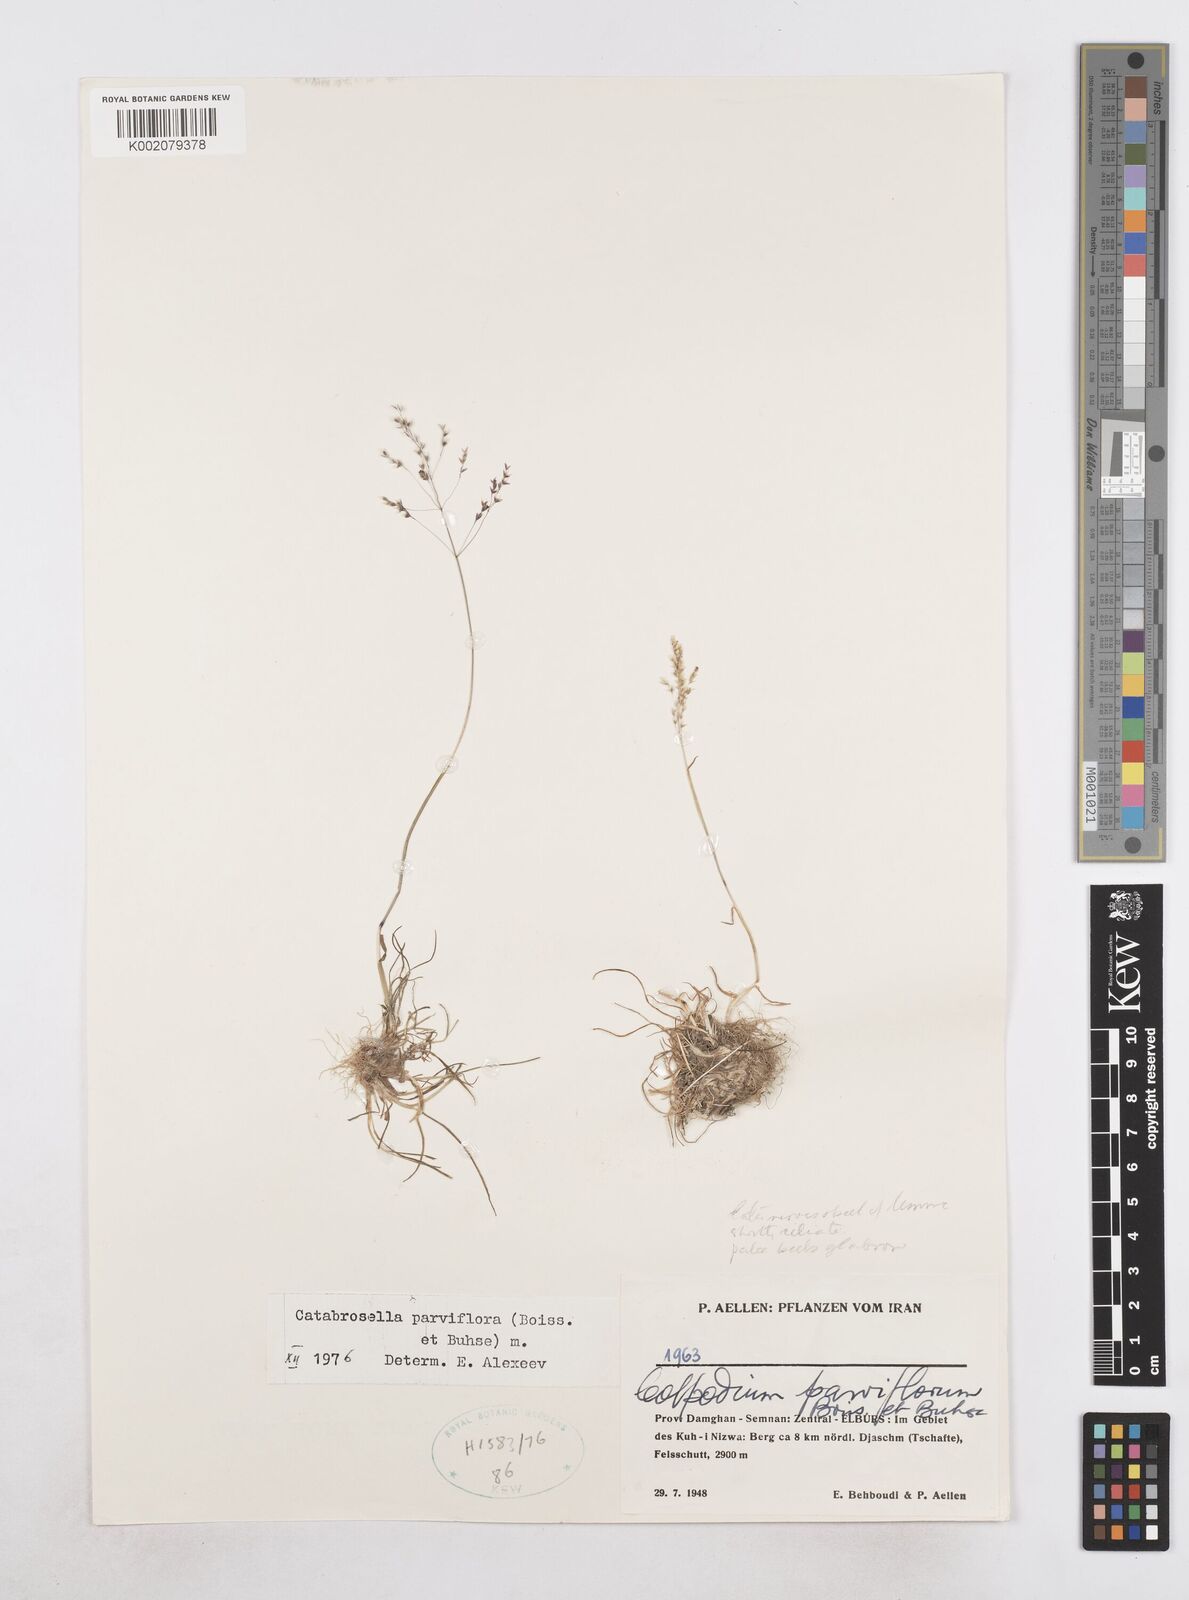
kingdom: Plantae
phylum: Tracheophyta
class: Liliopsida
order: Poales
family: Poaceae
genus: Catabrosella
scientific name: Catabrosella humilis
